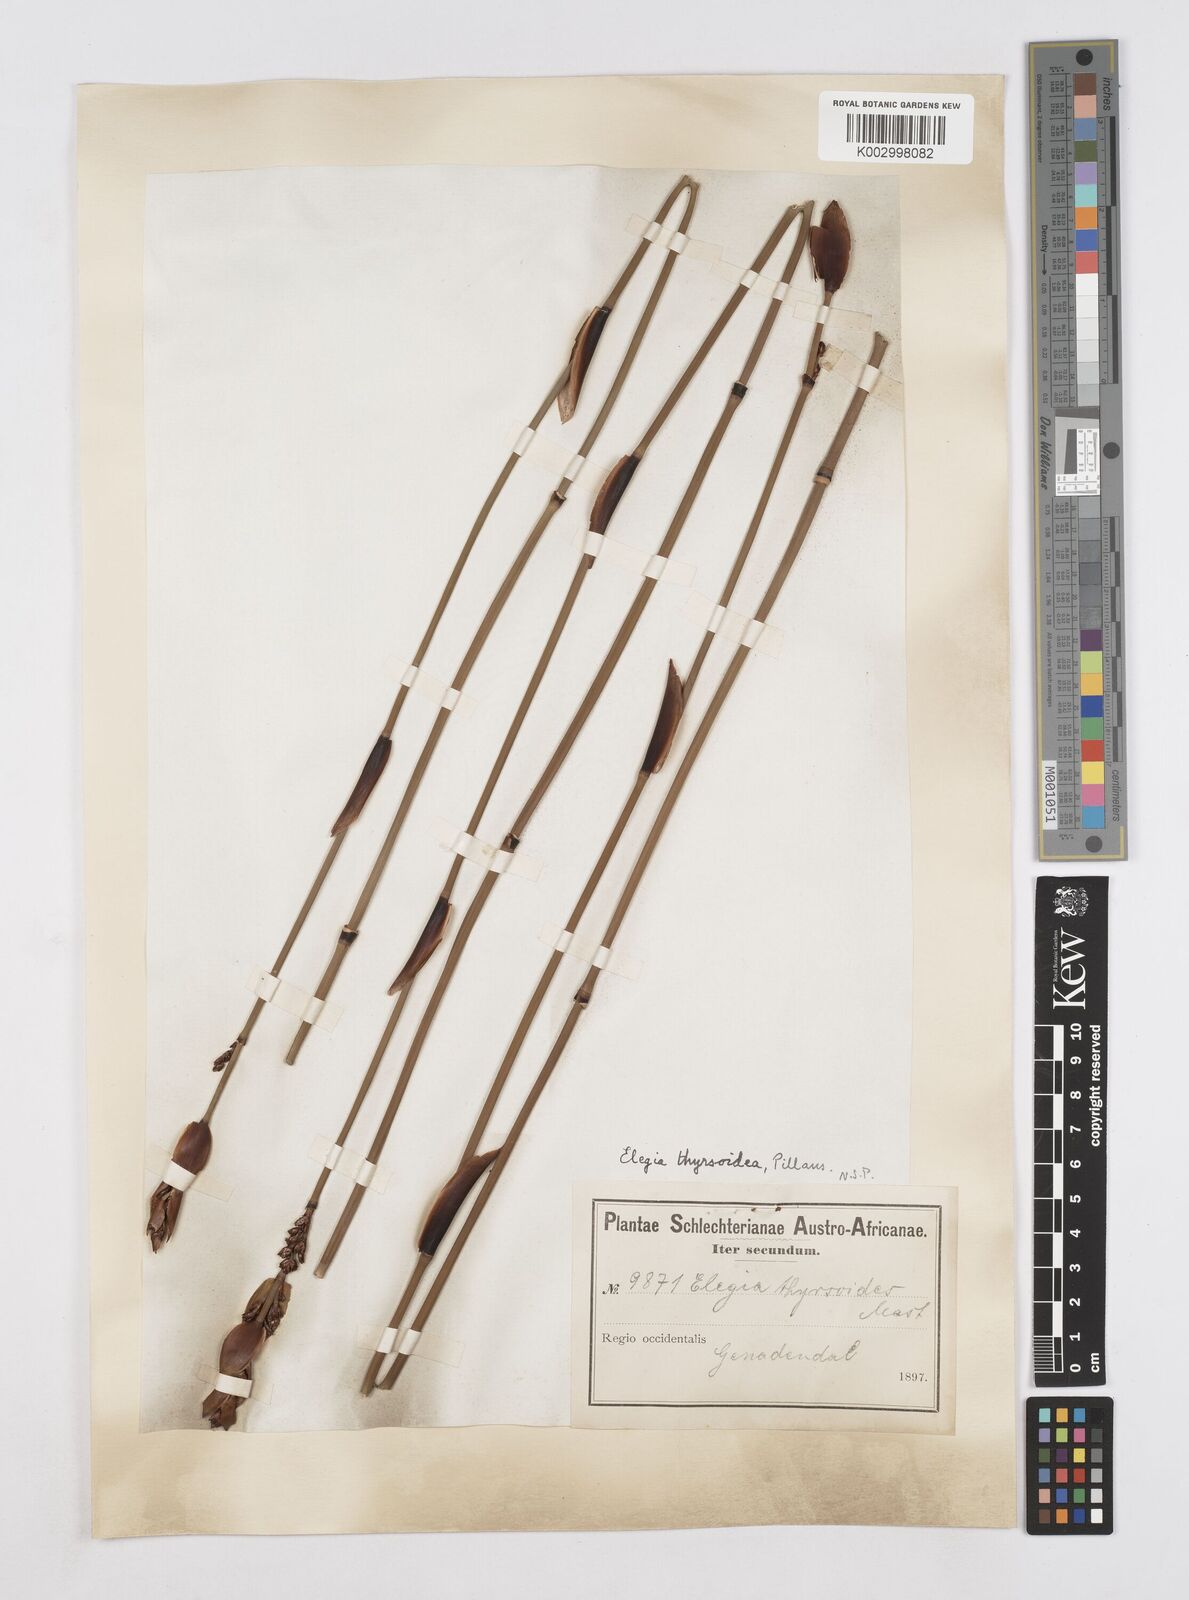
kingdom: Plantae
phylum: Tracheophyta
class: Liliopsida
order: Poales
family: Restionaceae
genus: Elegia
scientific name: Elegia aggregata
